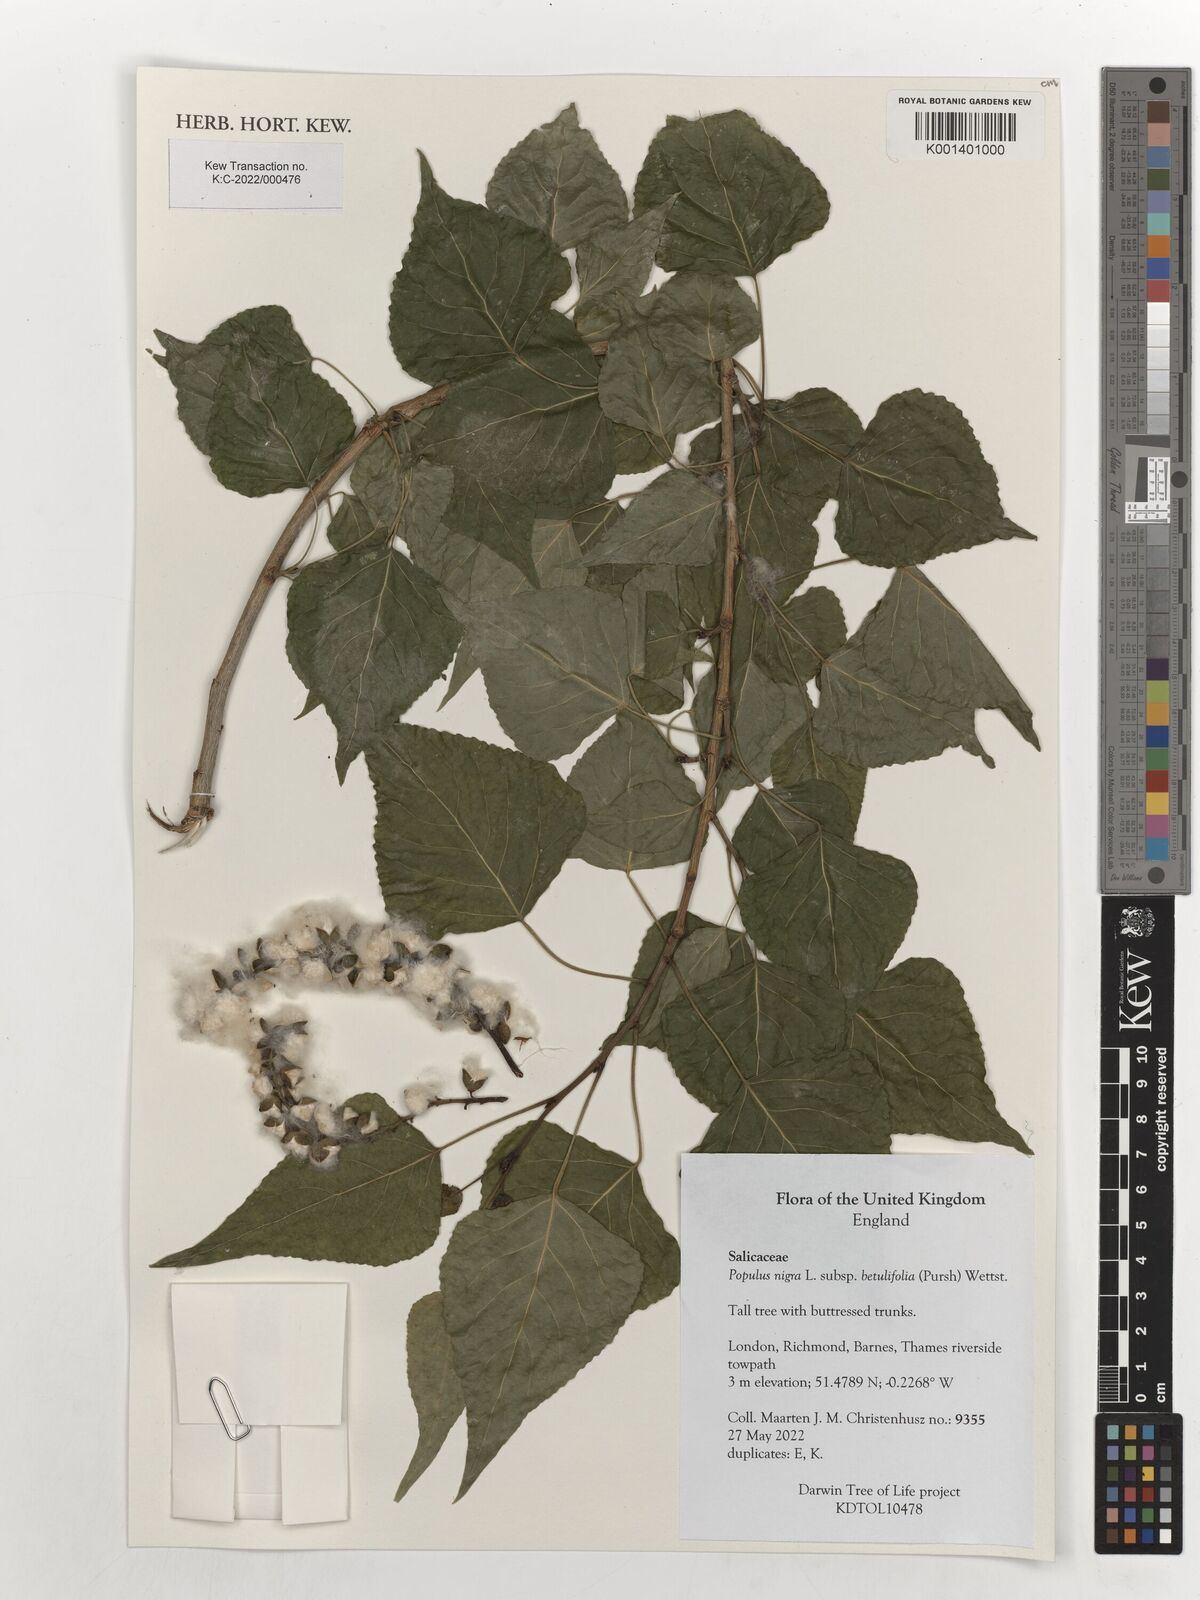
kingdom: Plantae
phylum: Tracheophyta
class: Magnoliopsida
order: Malpighiales
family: Salicaceae
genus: Populus
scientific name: Populus nigra
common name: Black poplar
